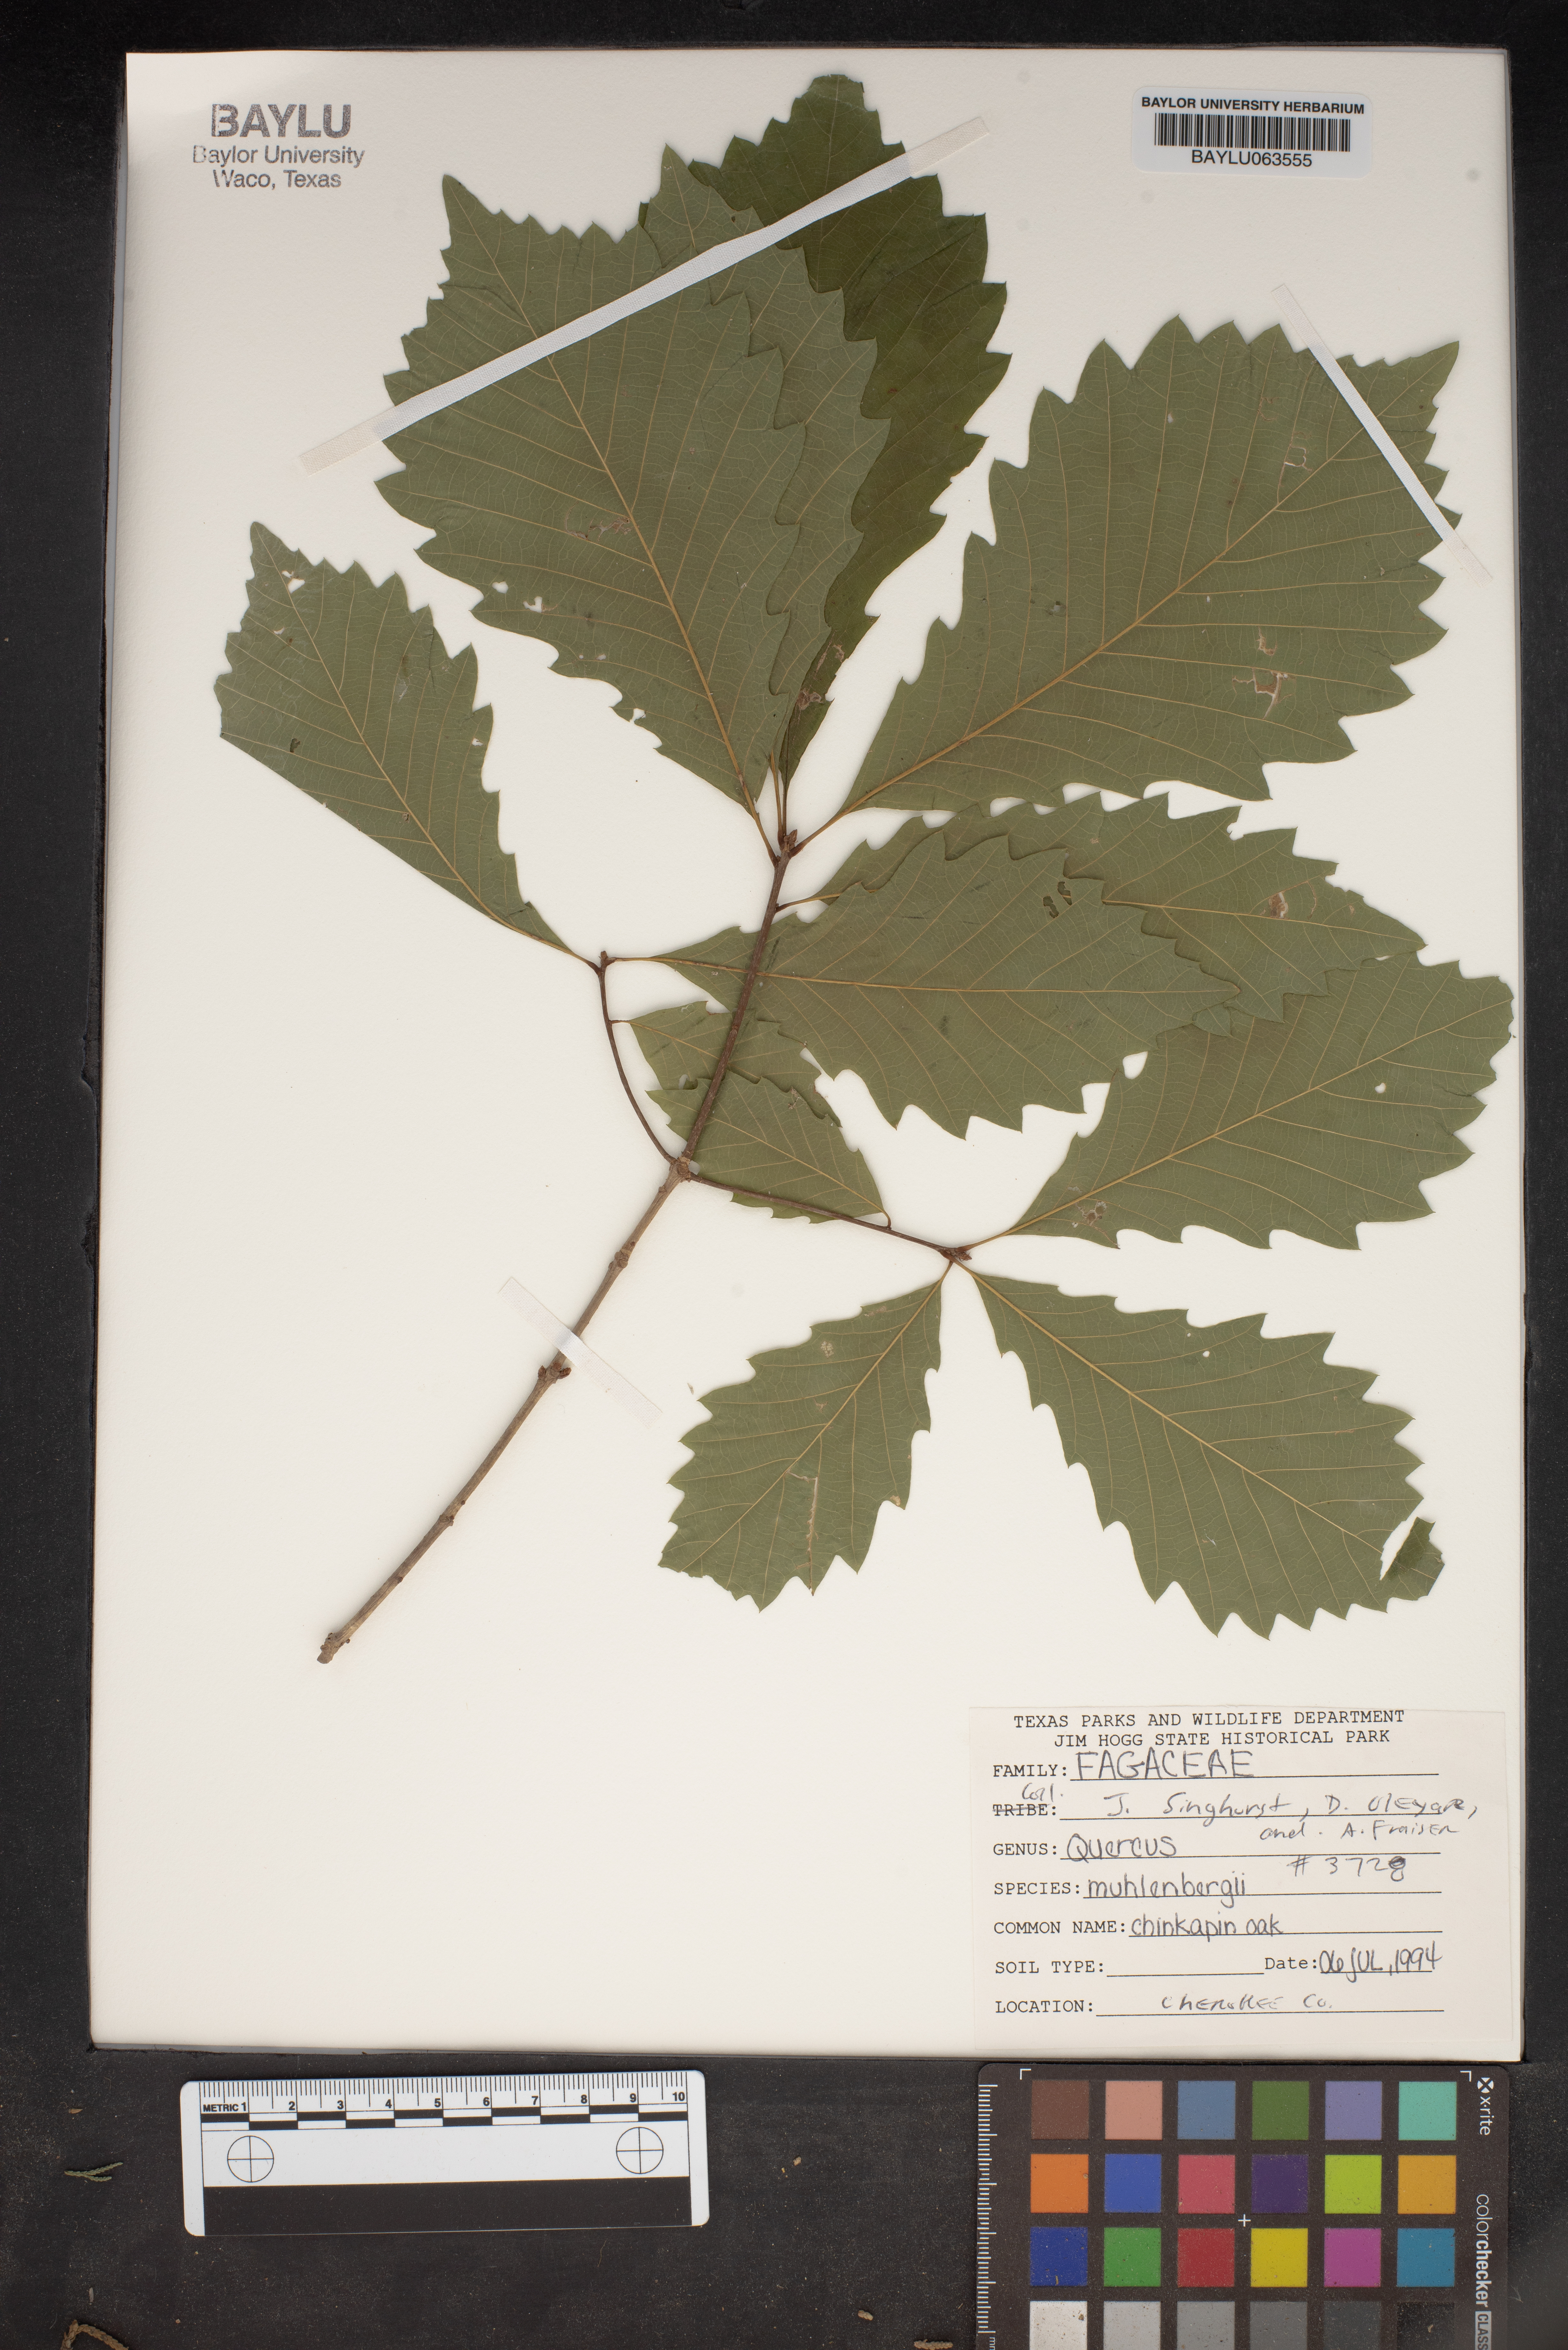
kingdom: Plantae
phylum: Tracheophyta
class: Magnoliopsida
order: Fagales
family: Fagaceae
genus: Quercus
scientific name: Quercus muehlenbergii
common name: Chinkapin oak
